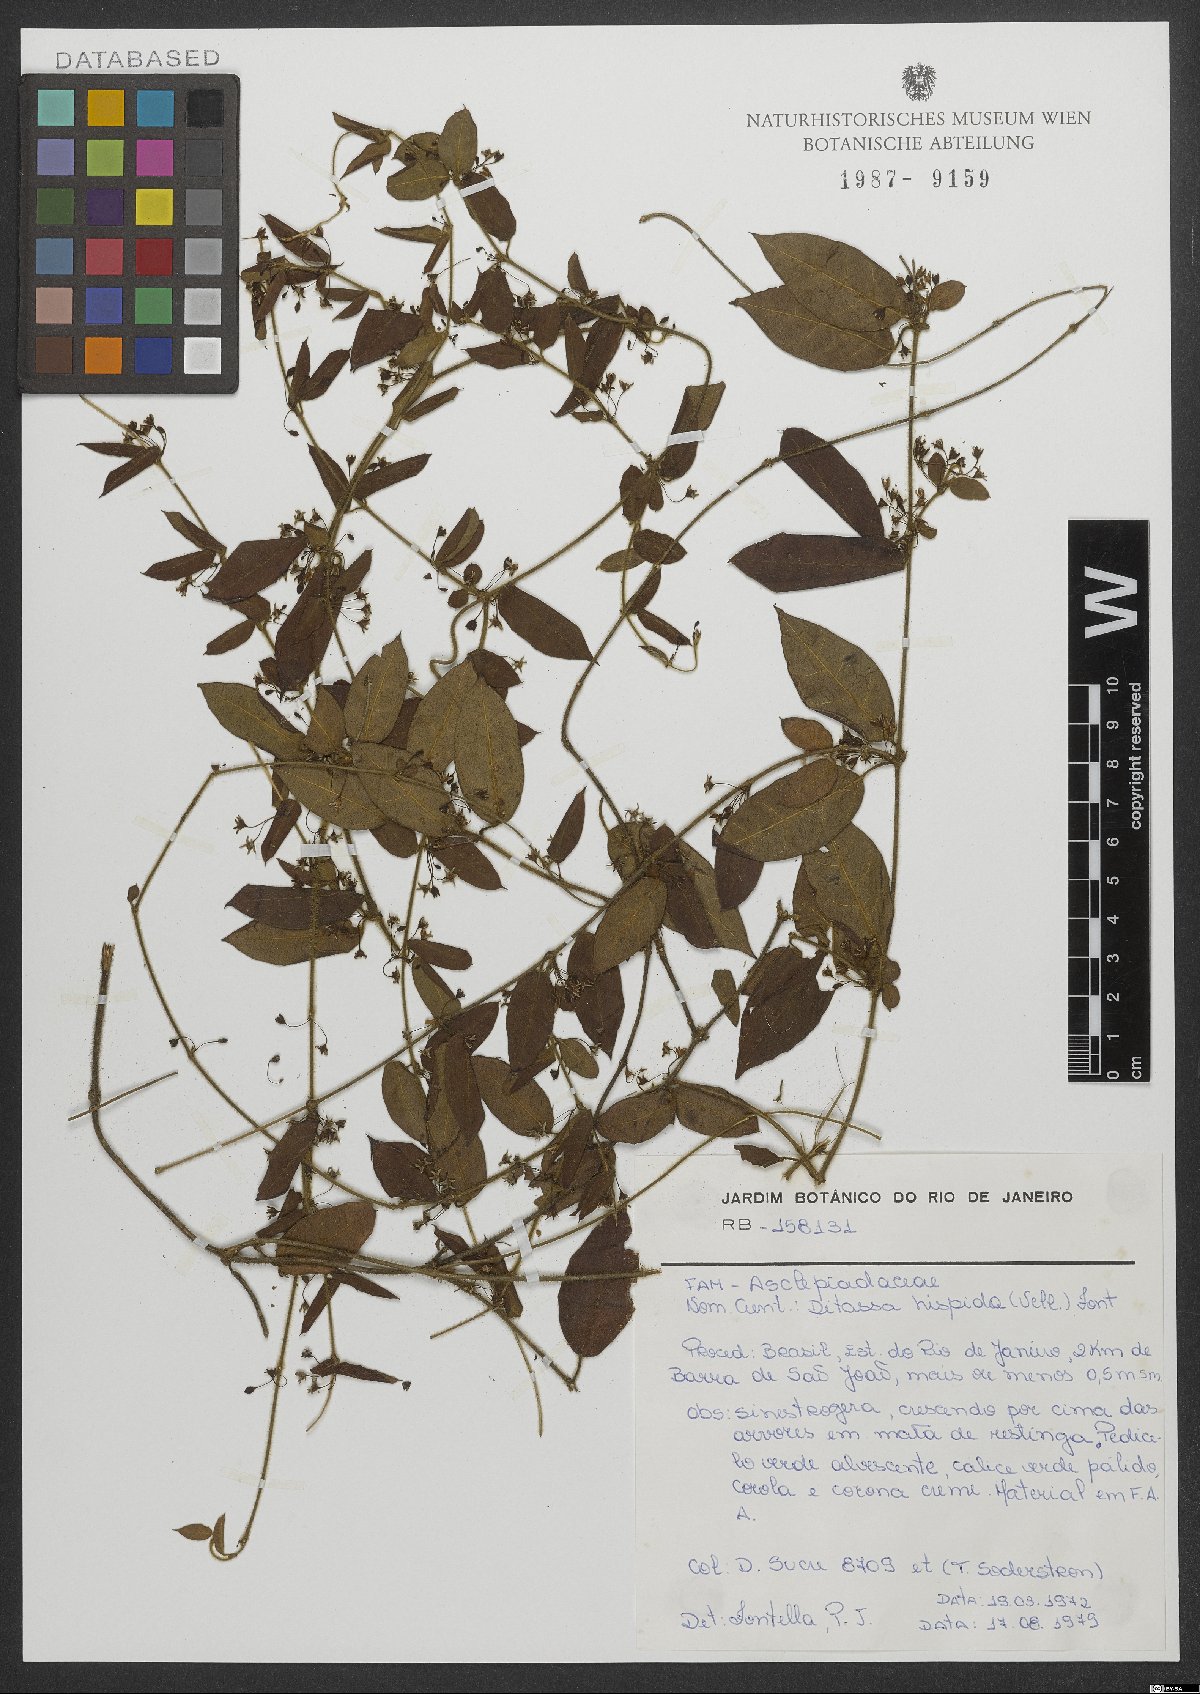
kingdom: Plantae
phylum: Tracheophyta
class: Magnoliopsida
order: Gentianales
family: Apocynaceae
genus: Ditassa
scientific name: Ditassa hispida
